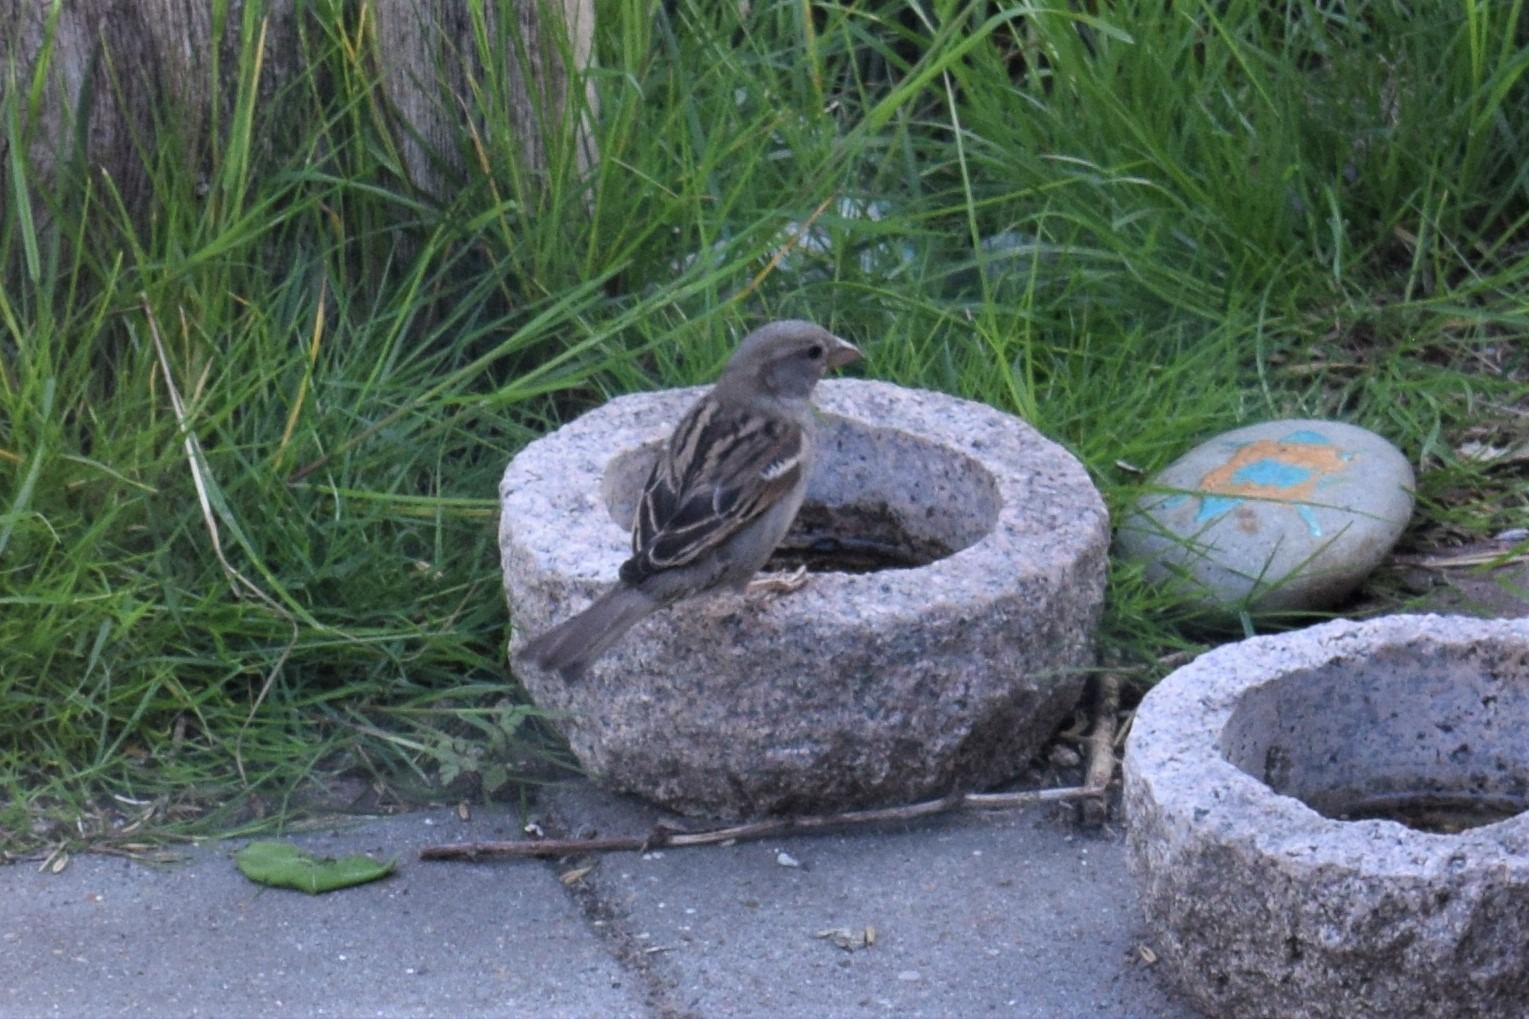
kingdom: Animalia
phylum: Chordata
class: Aves
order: Passeriformes
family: Passeridae
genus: Passer
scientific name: Passer domesticus
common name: Gråspurv
